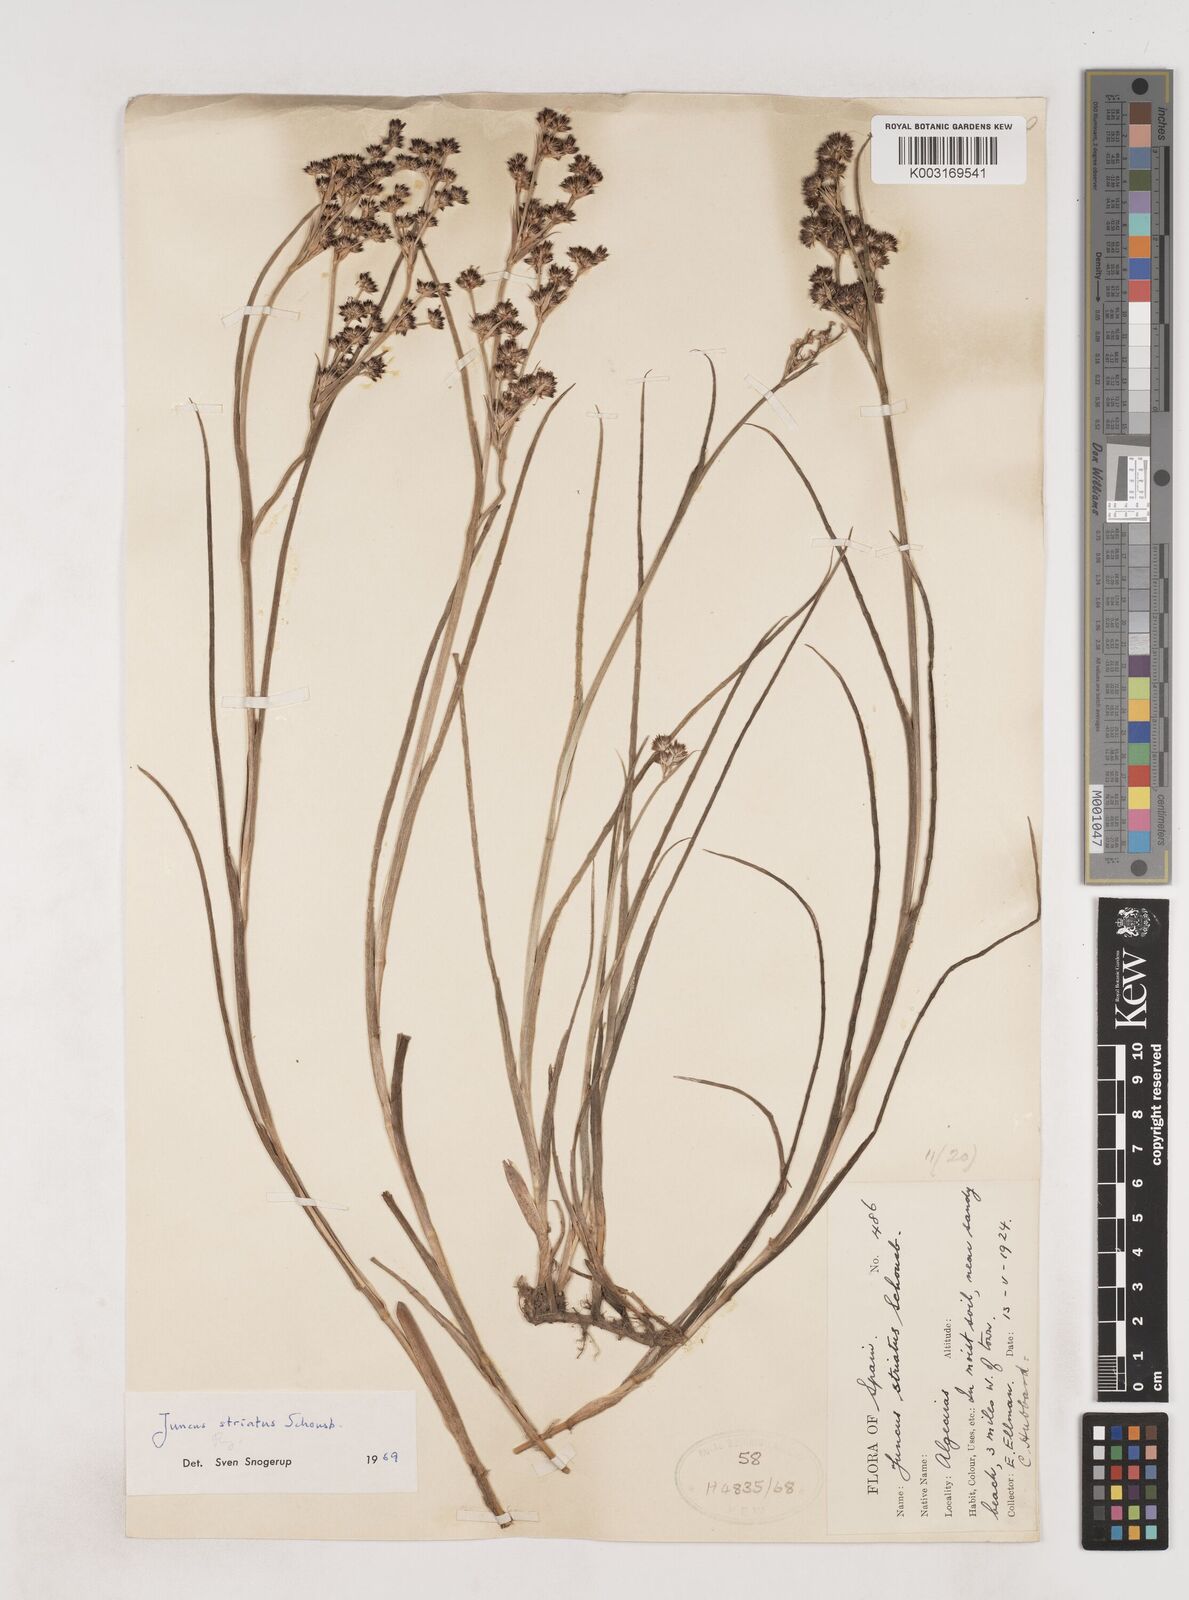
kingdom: Plantae
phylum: Tracheophyta
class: Liliopsida
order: Poales
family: Juncaceae
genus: Juncus
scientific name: Juncus striatus
